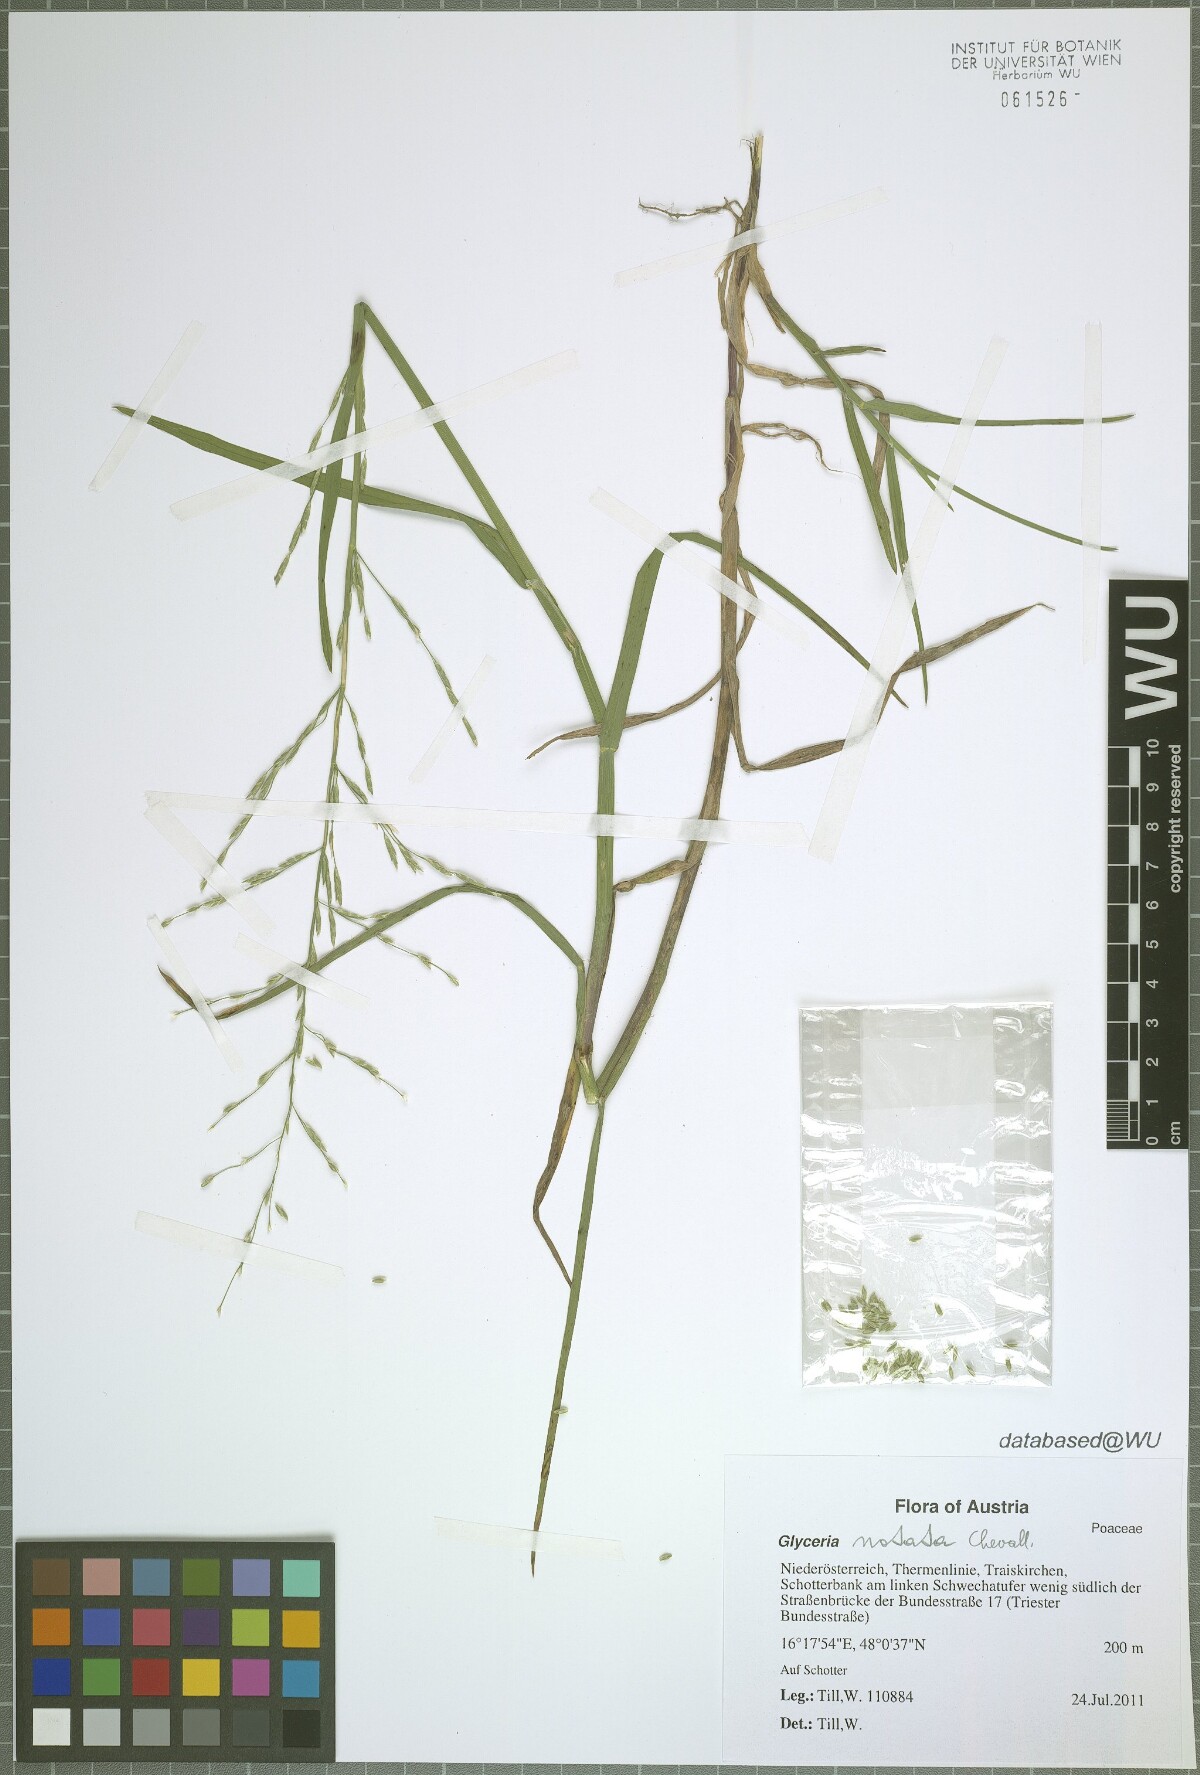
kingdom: Plantae
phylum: Tracheophyta
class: Liliopsida
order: Poales
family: Poaceae
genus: Glyceria
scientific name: Glyceria notata
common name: Plicate sweet-grass
